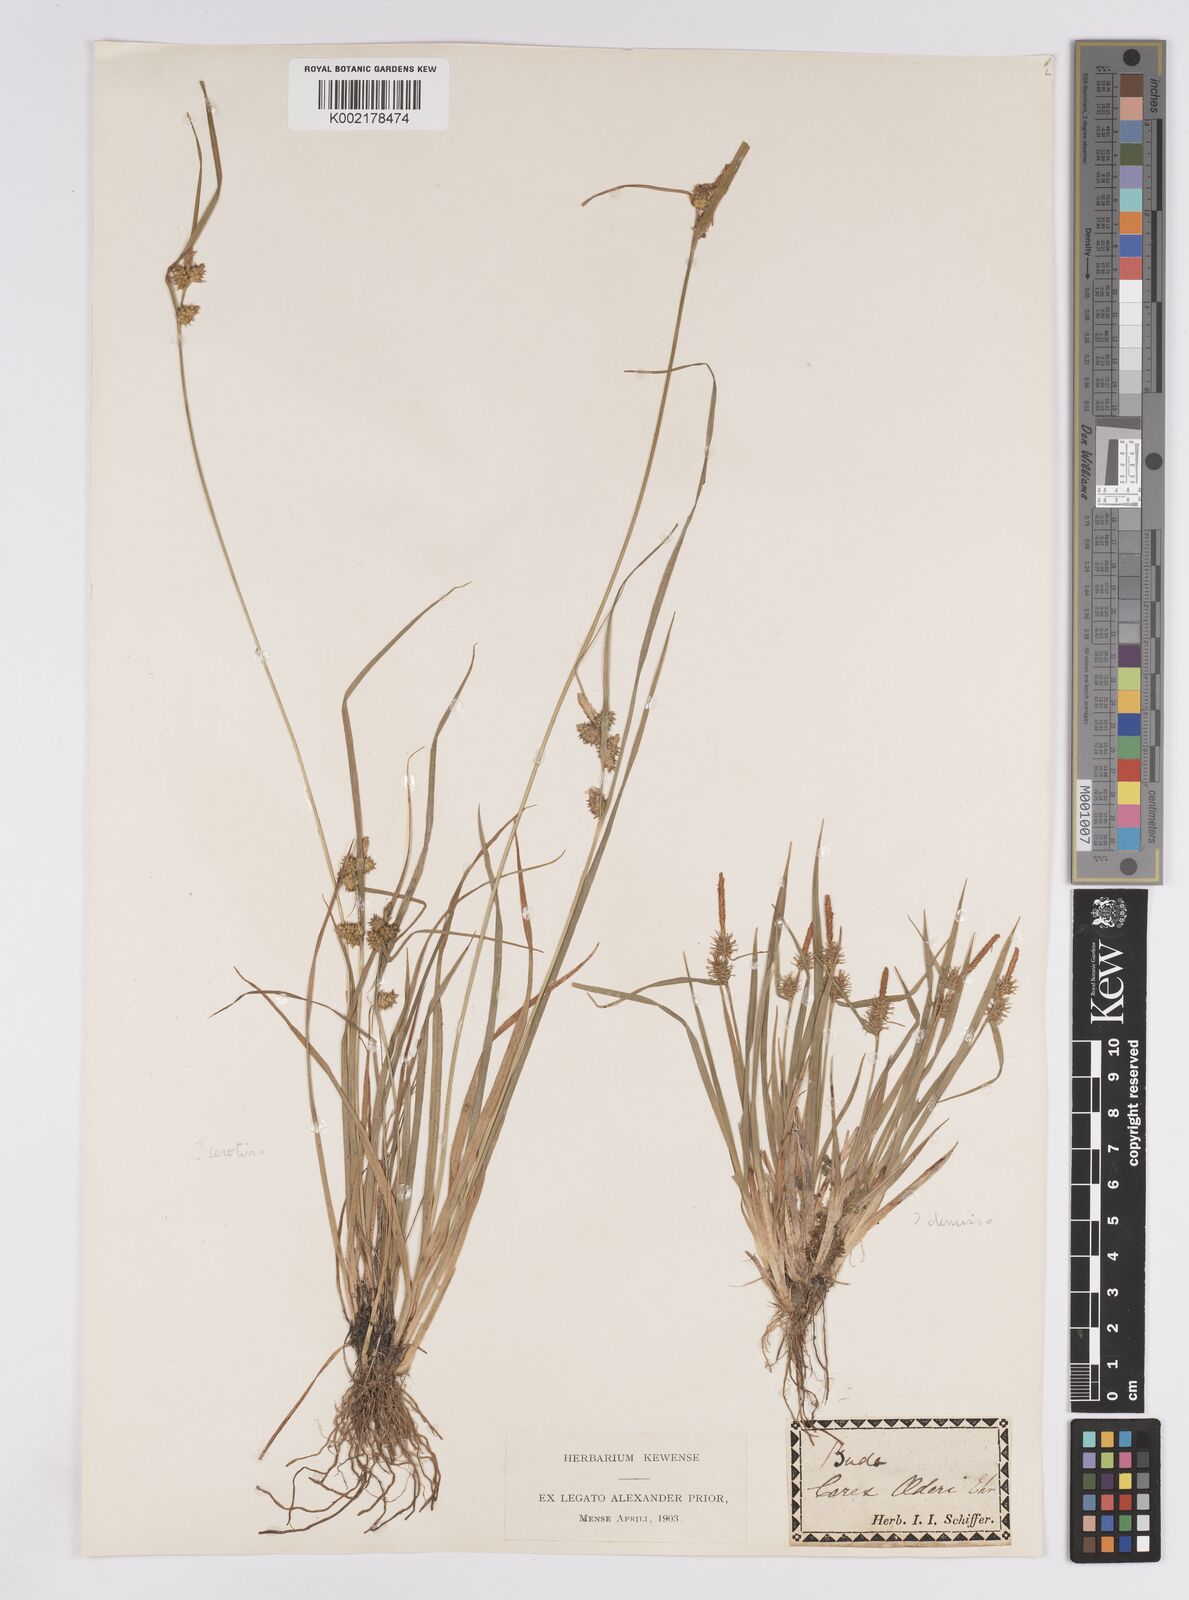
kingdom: Plantae
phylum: Tracheophyta
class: Liliopsida
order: Poales
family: Cyperaceae
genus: Carex
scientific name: Carex demissa
